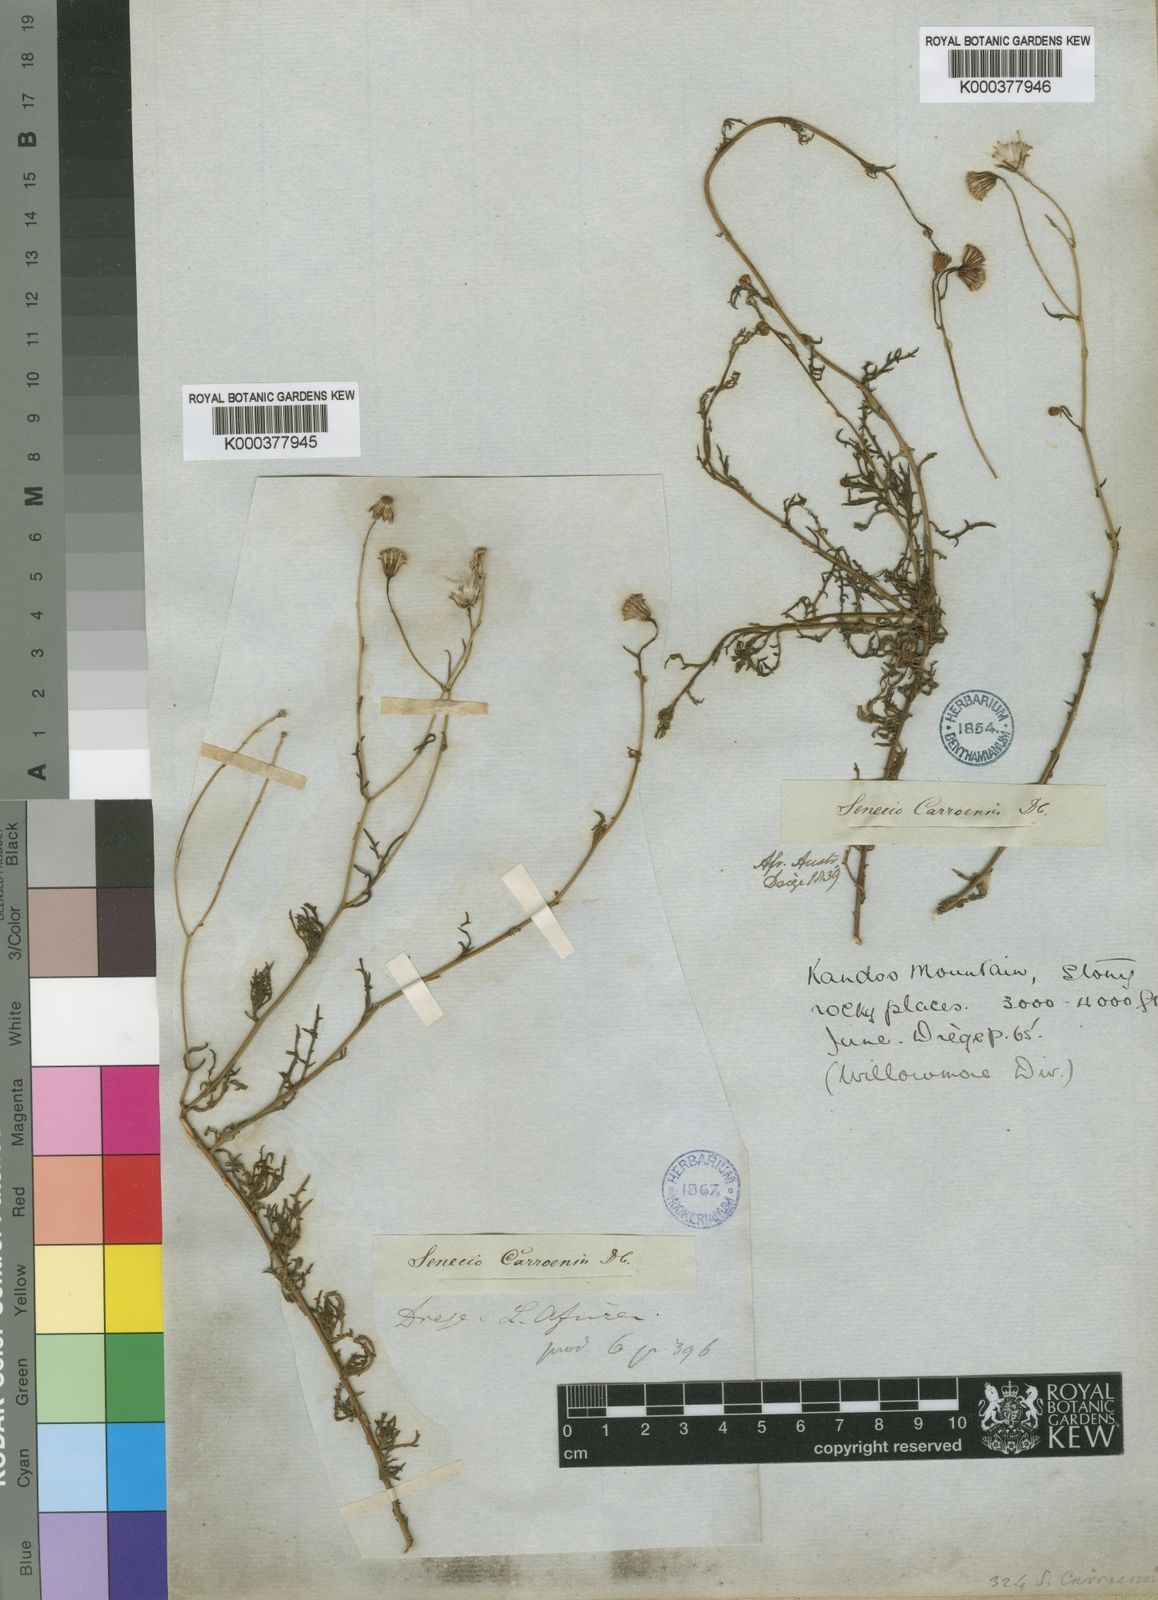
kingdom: Plantae
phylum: Tracheophyta
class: Magnoliopsida
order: Asterales
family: Asteraceae
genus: Senecio
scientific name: Senecio carroensis
